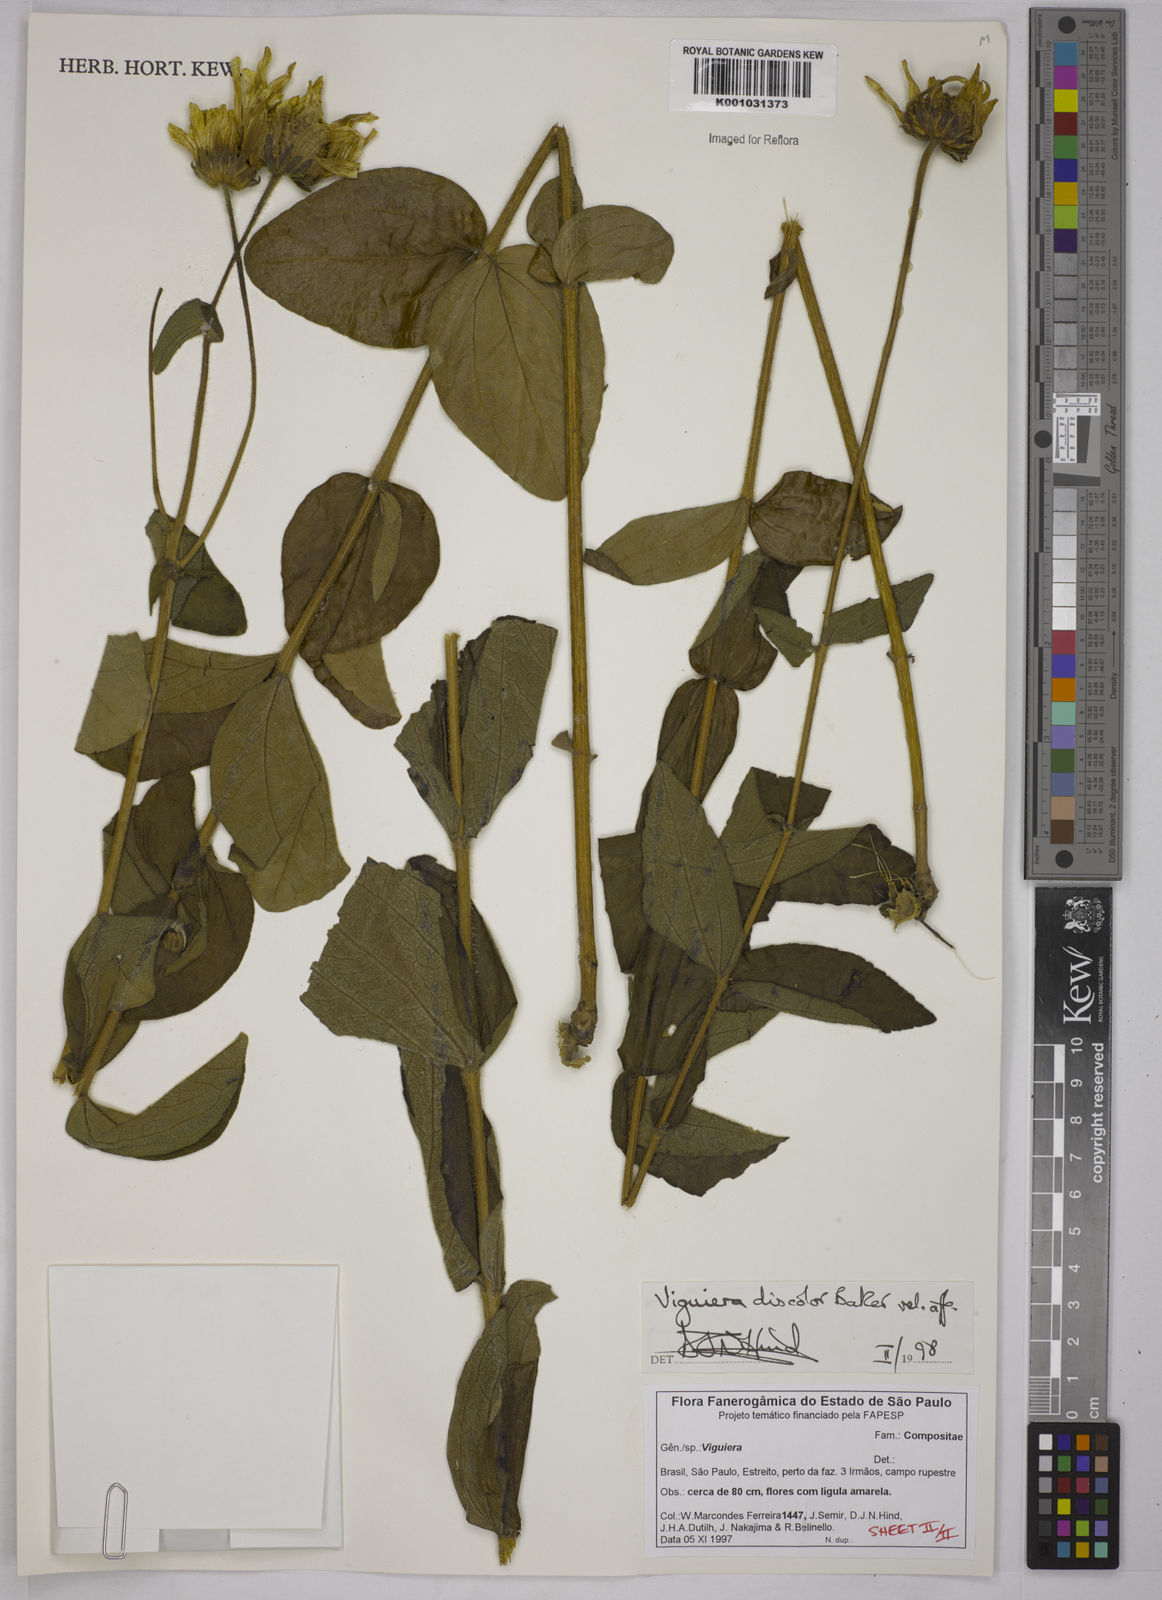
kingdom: Plantae
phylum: Tracheophyta
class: Magnoliopsida
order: Asterales
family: Asteraceae
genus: Aldama
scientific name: Aldama discolor
